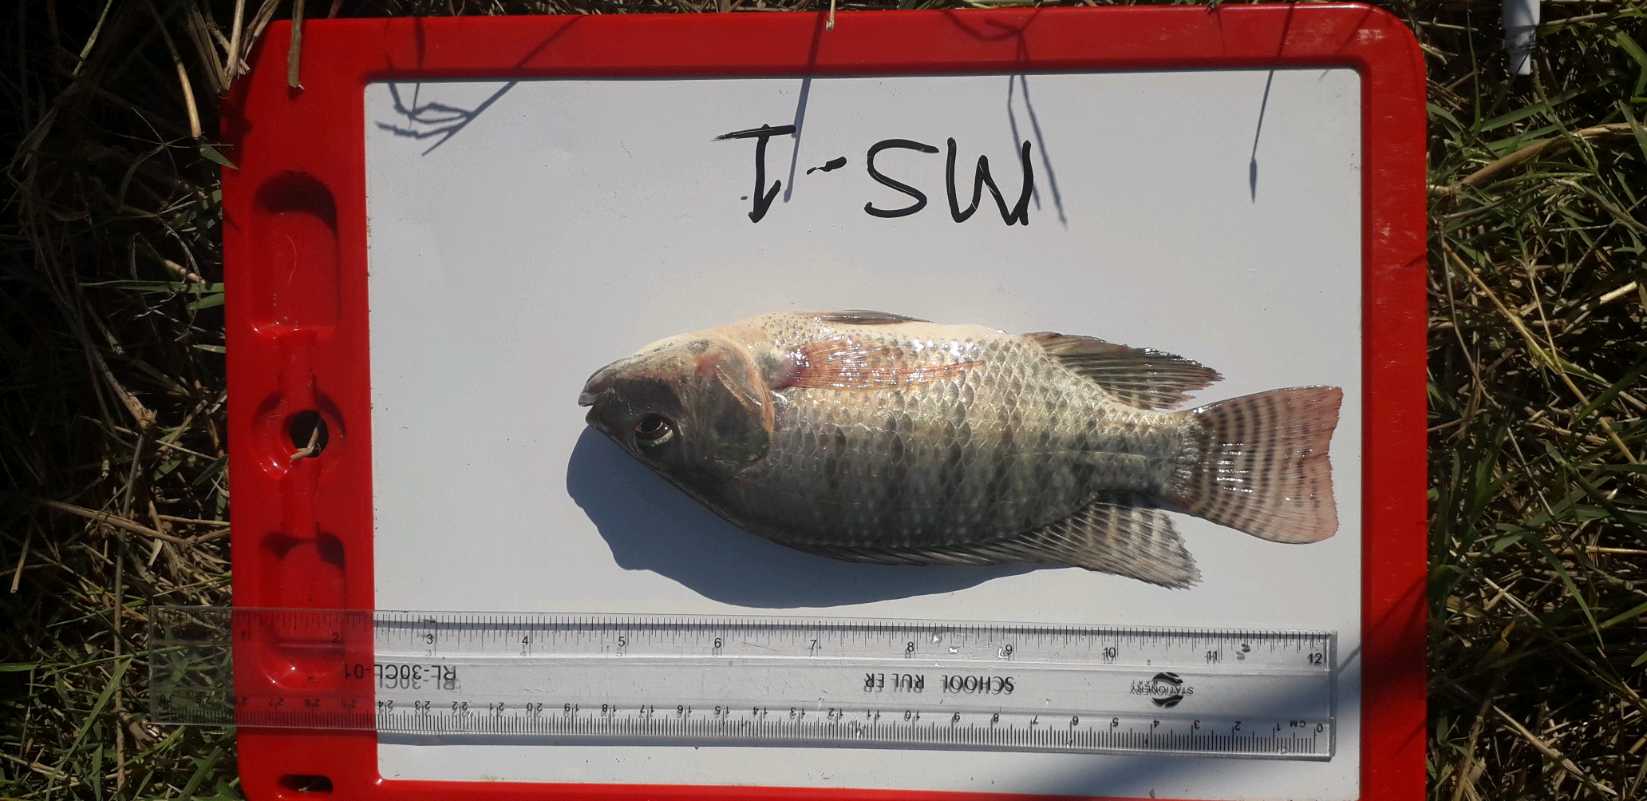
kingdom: Animalia
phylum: Chordata
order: Perciformes
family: Cichlidae
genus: Oreochromis
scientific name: Oreochromis niloticus
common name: Nile tilapia
